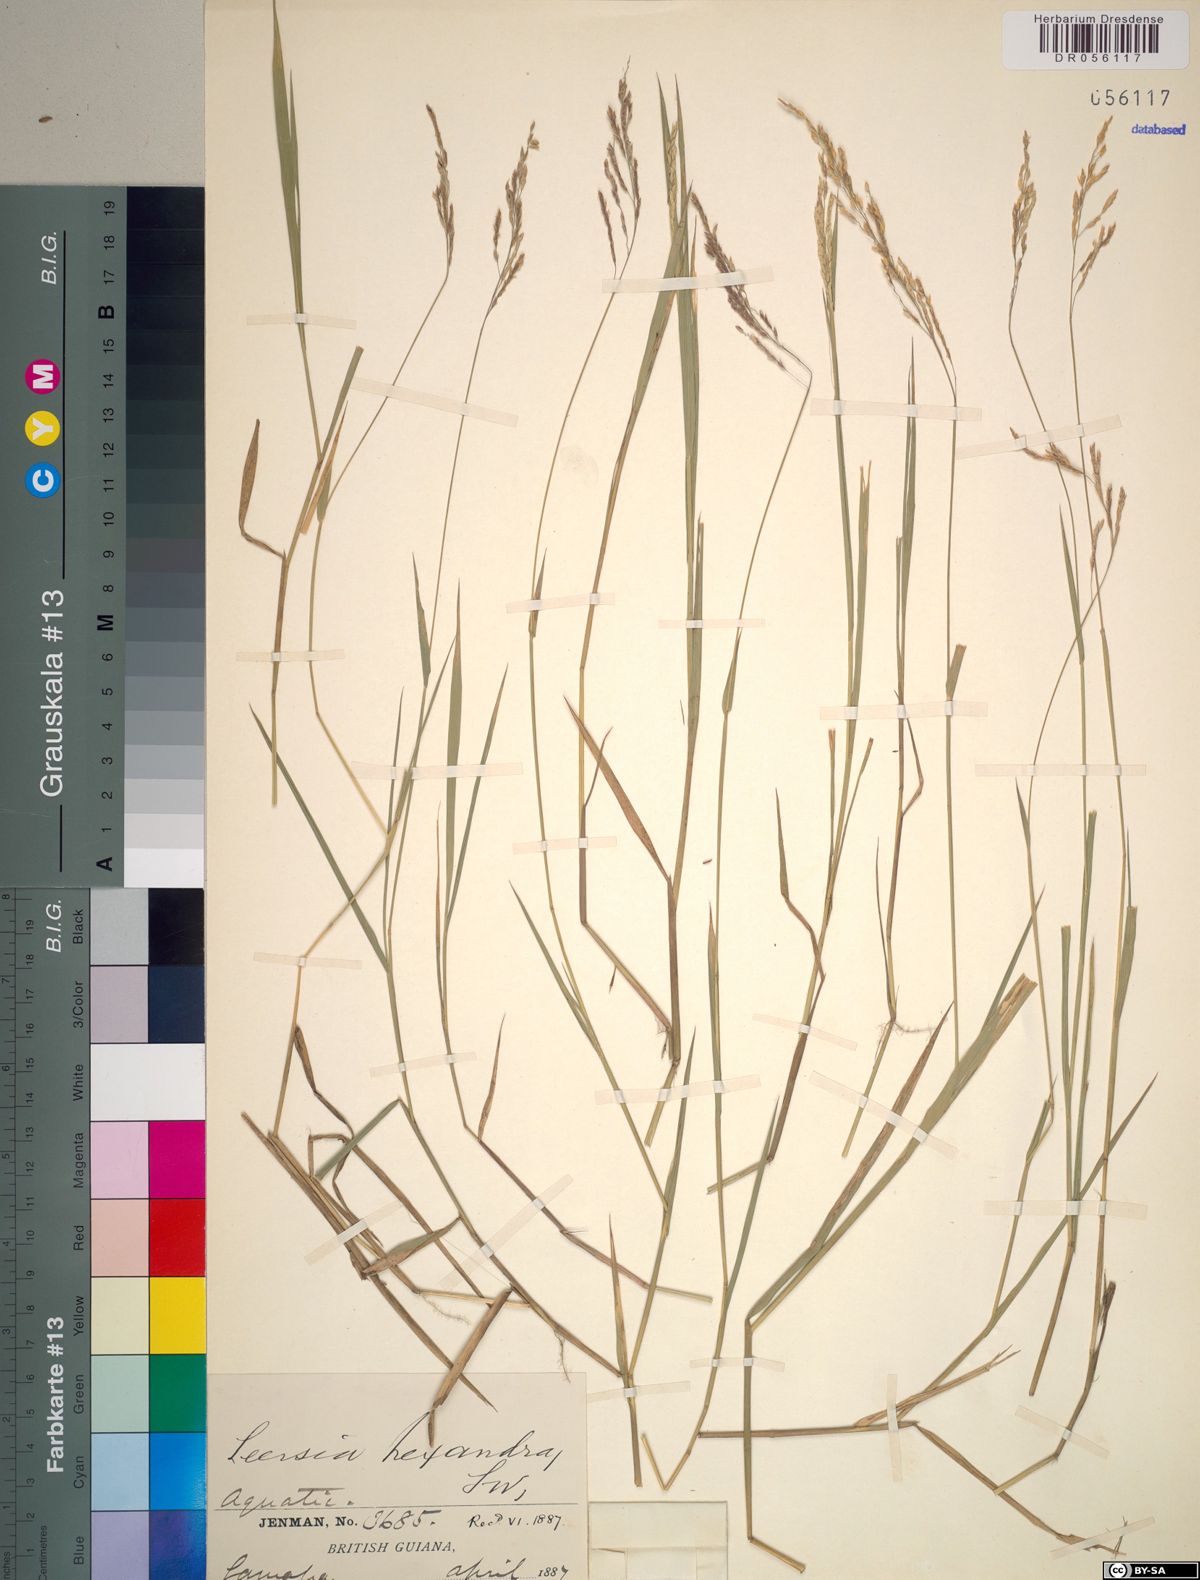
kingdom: Plantae
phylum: Tracheophyta
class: Liliopsida
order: Poales
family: Poaceae
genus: Leersia
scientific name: Leersia hexandra
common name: Southern cut grass
